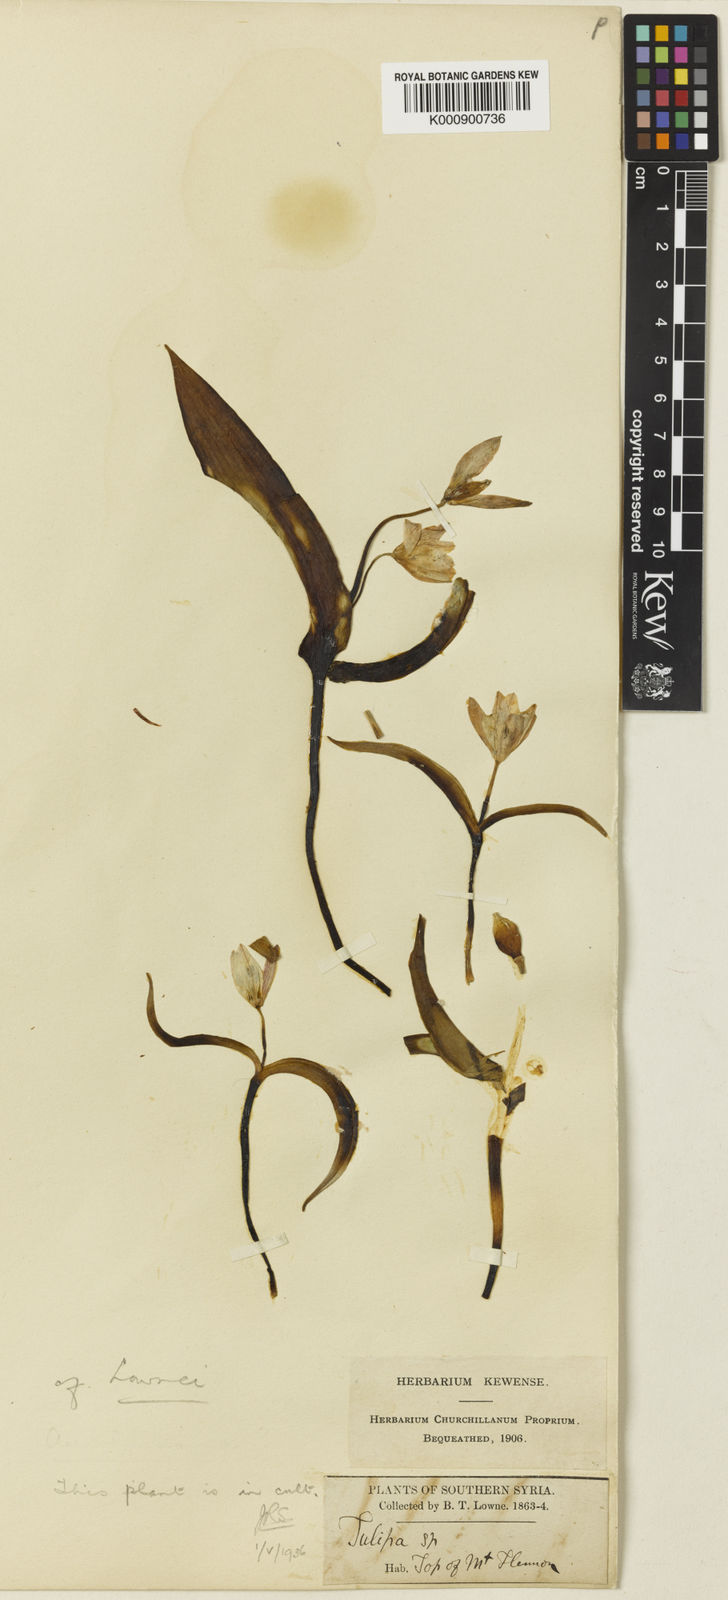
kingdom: Plantae
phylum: Tracheophyta
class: Liliopsida
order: Liliales
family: Liliaceae
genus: Tulipa
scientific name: Tulipa humilis
